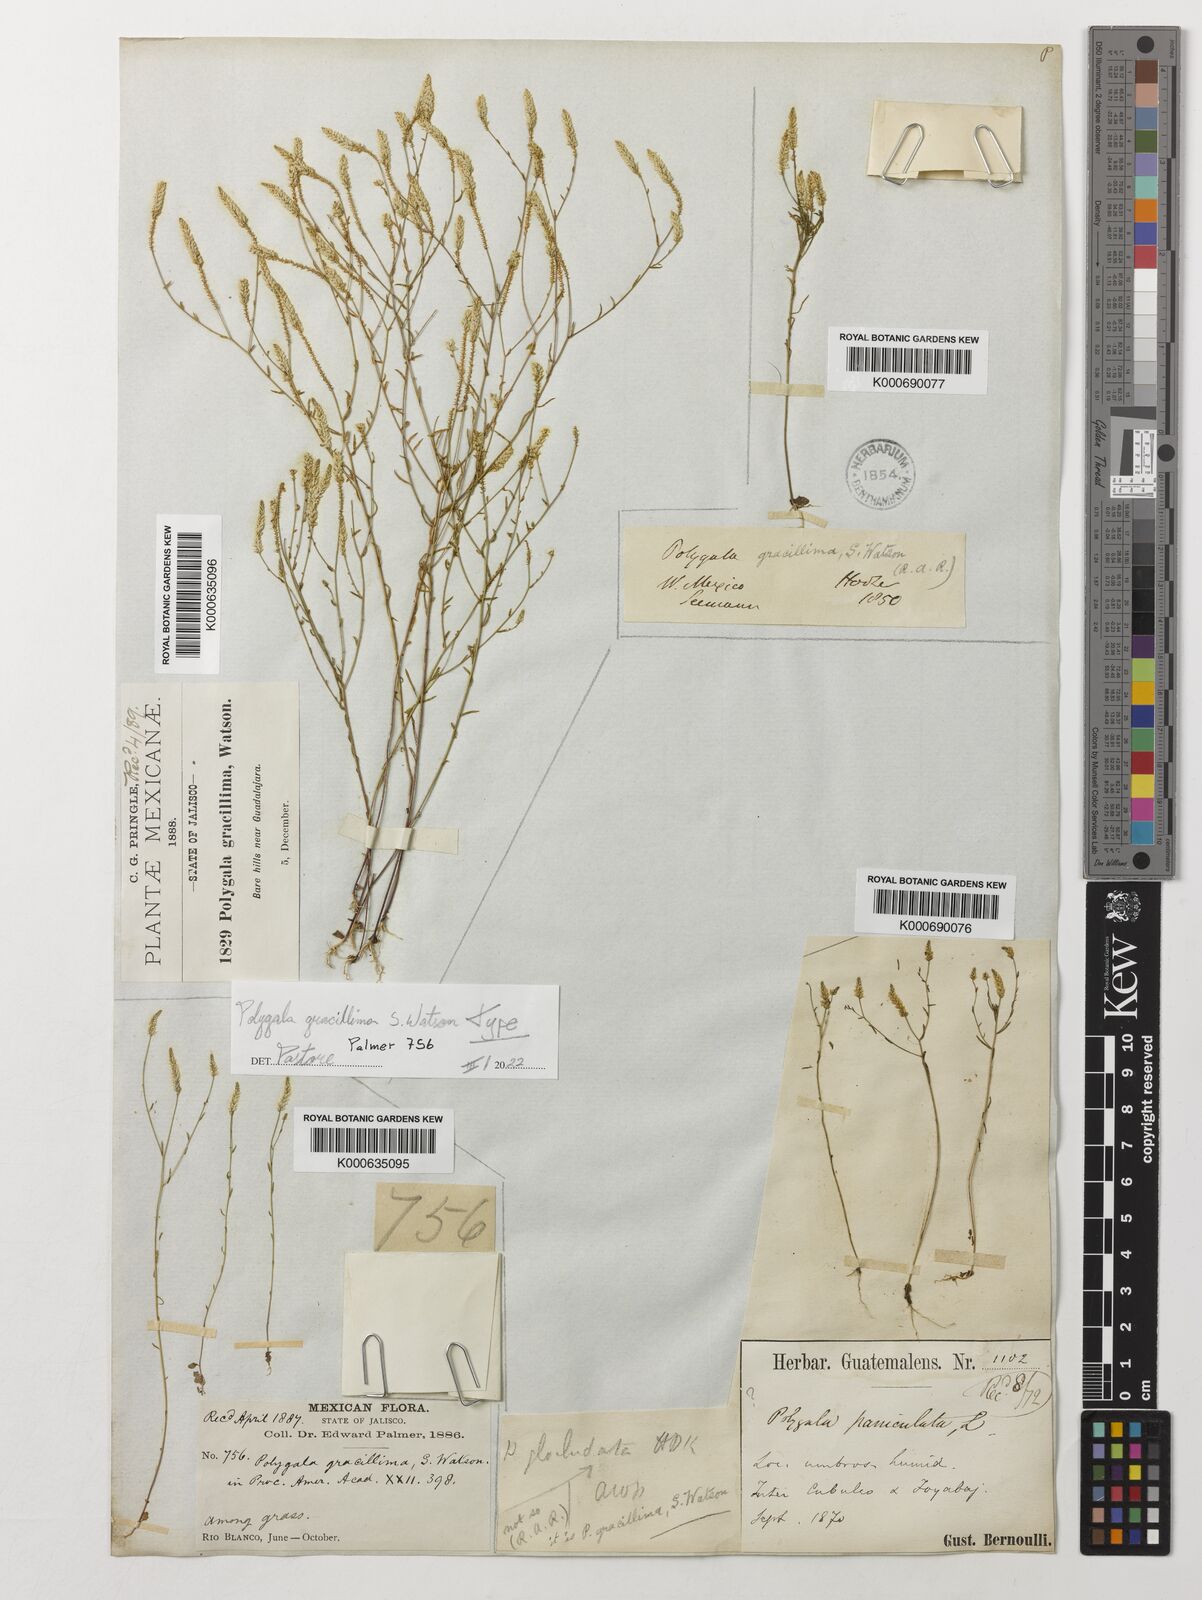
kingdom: Plantae
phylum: Tracheophyta
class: Magnoliopsida
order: Fabales
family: Polygalaceae
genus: Polygala
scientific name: Polygala gracillima
